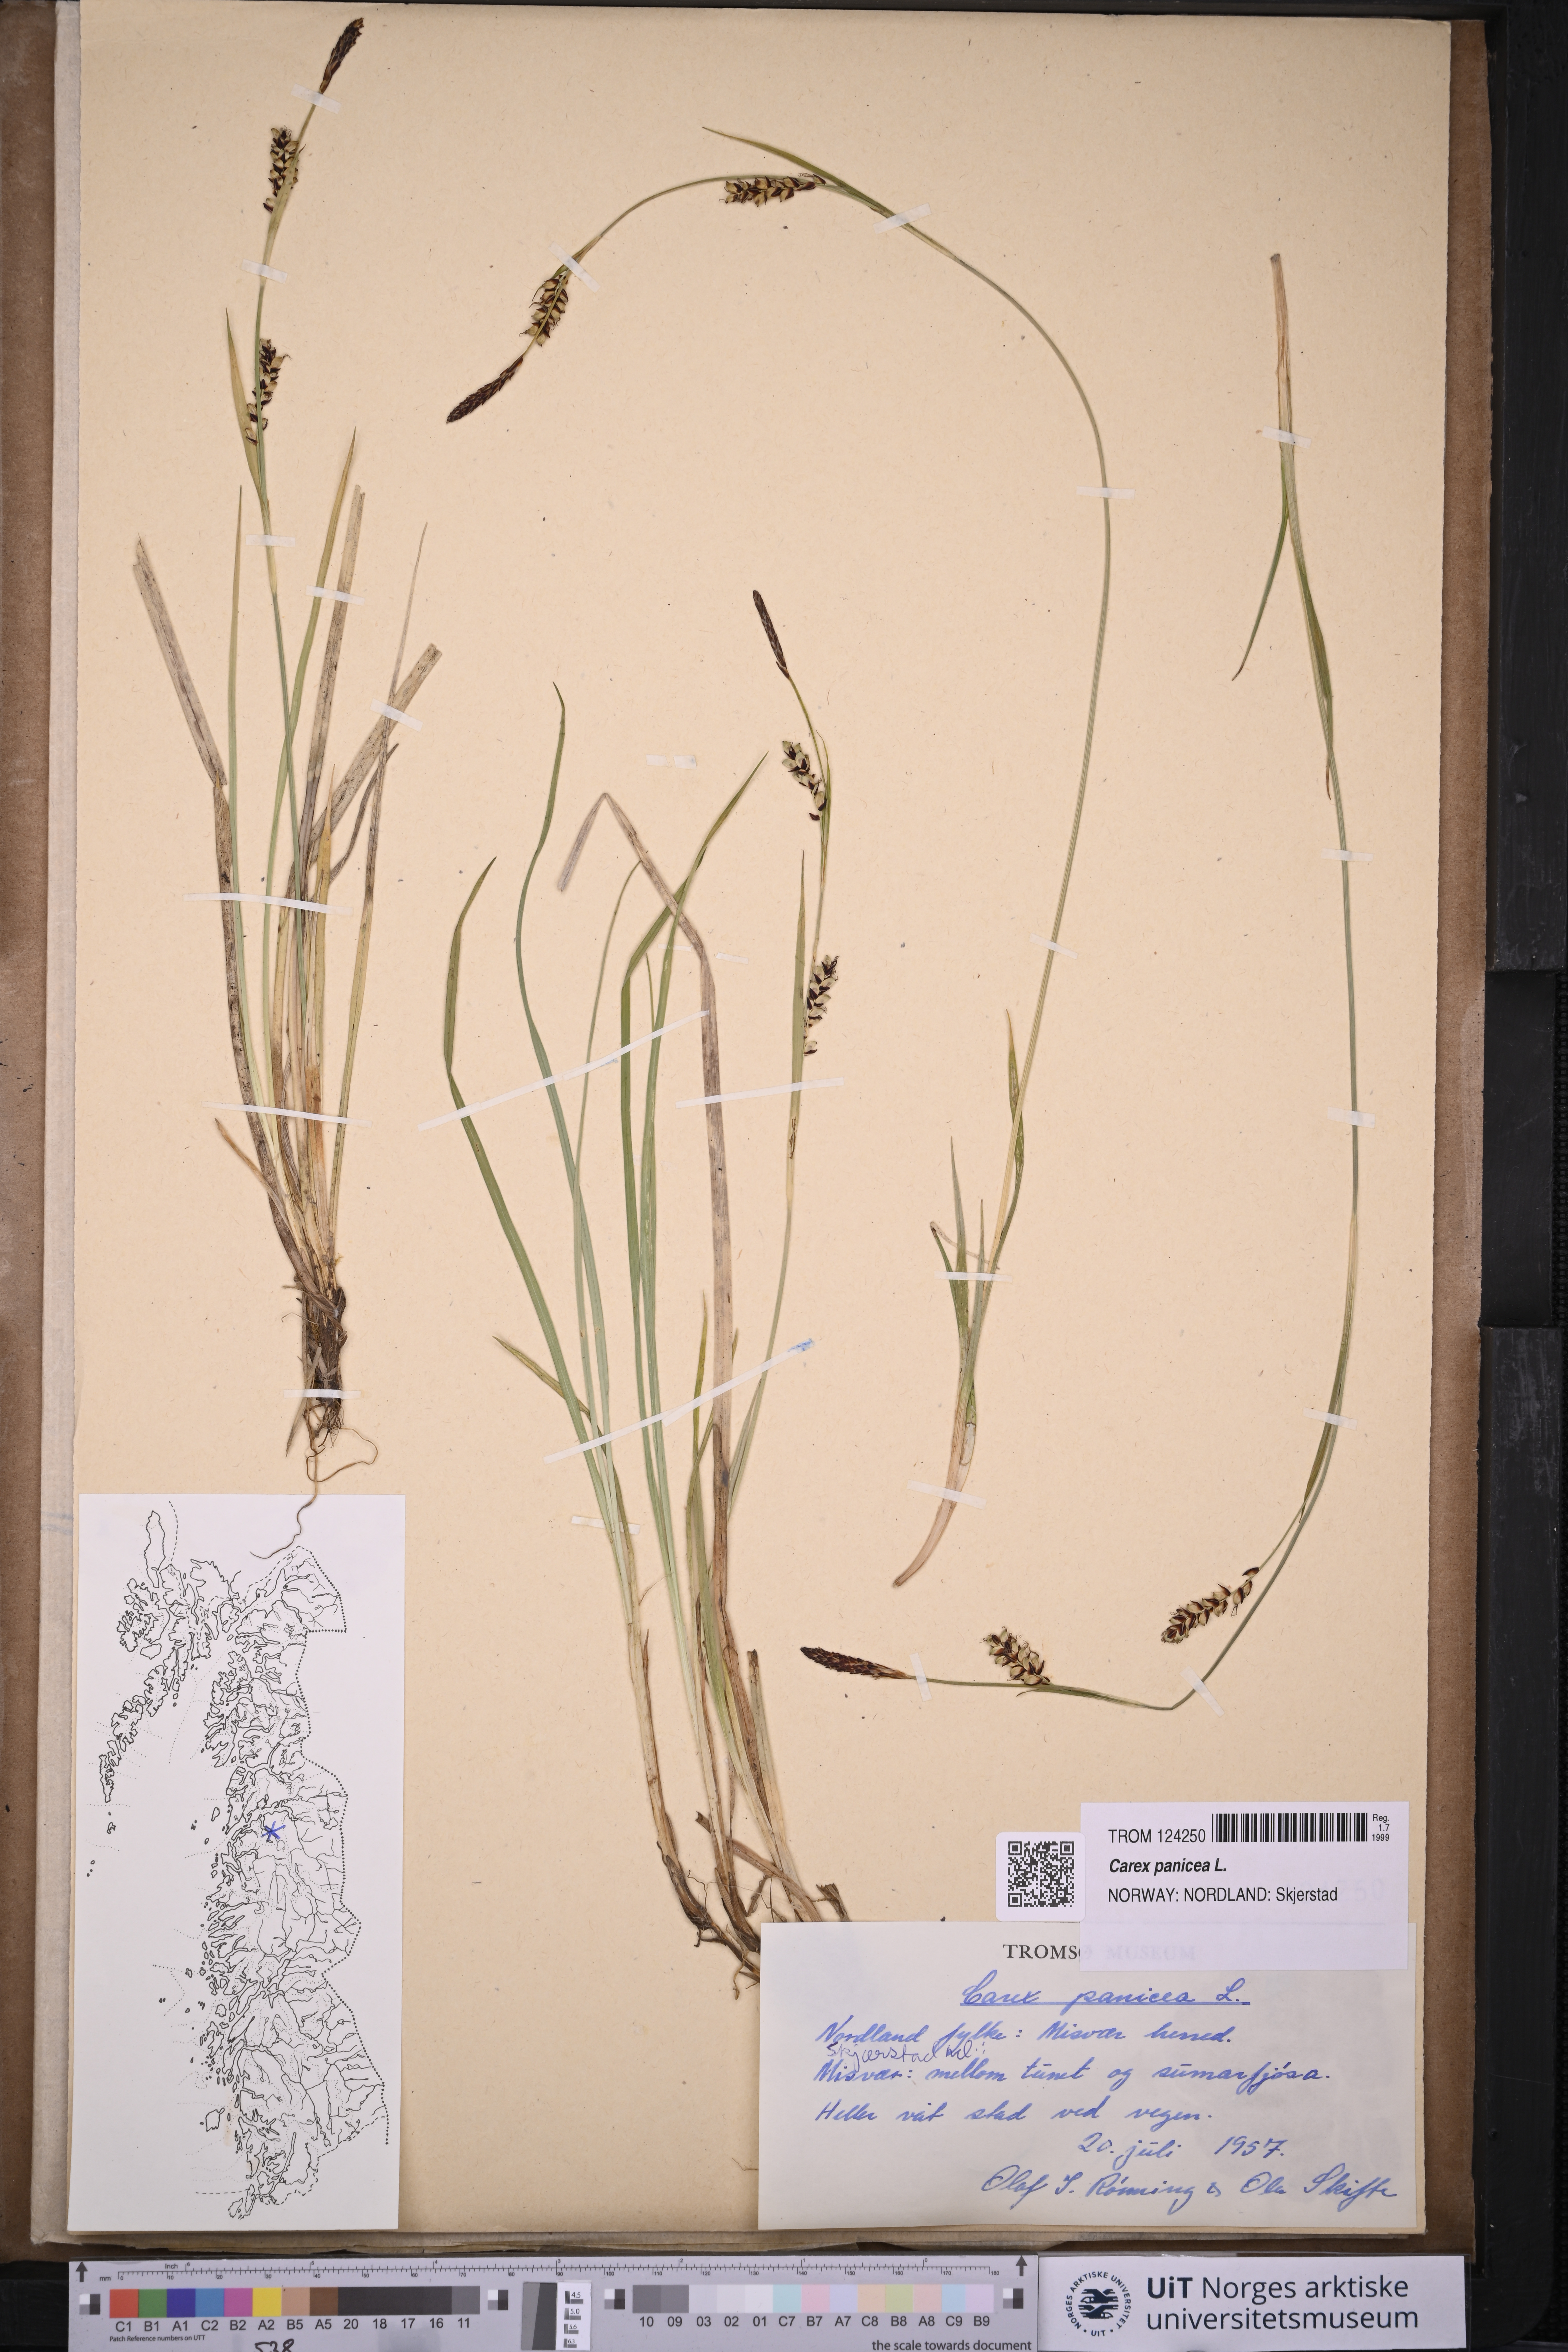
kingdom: Plantae
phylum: Tracheophyta
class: Liliopsida
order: Poales
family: Cyperaceae
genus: Carex
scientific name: Carex panicea
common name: Carnation sedge
